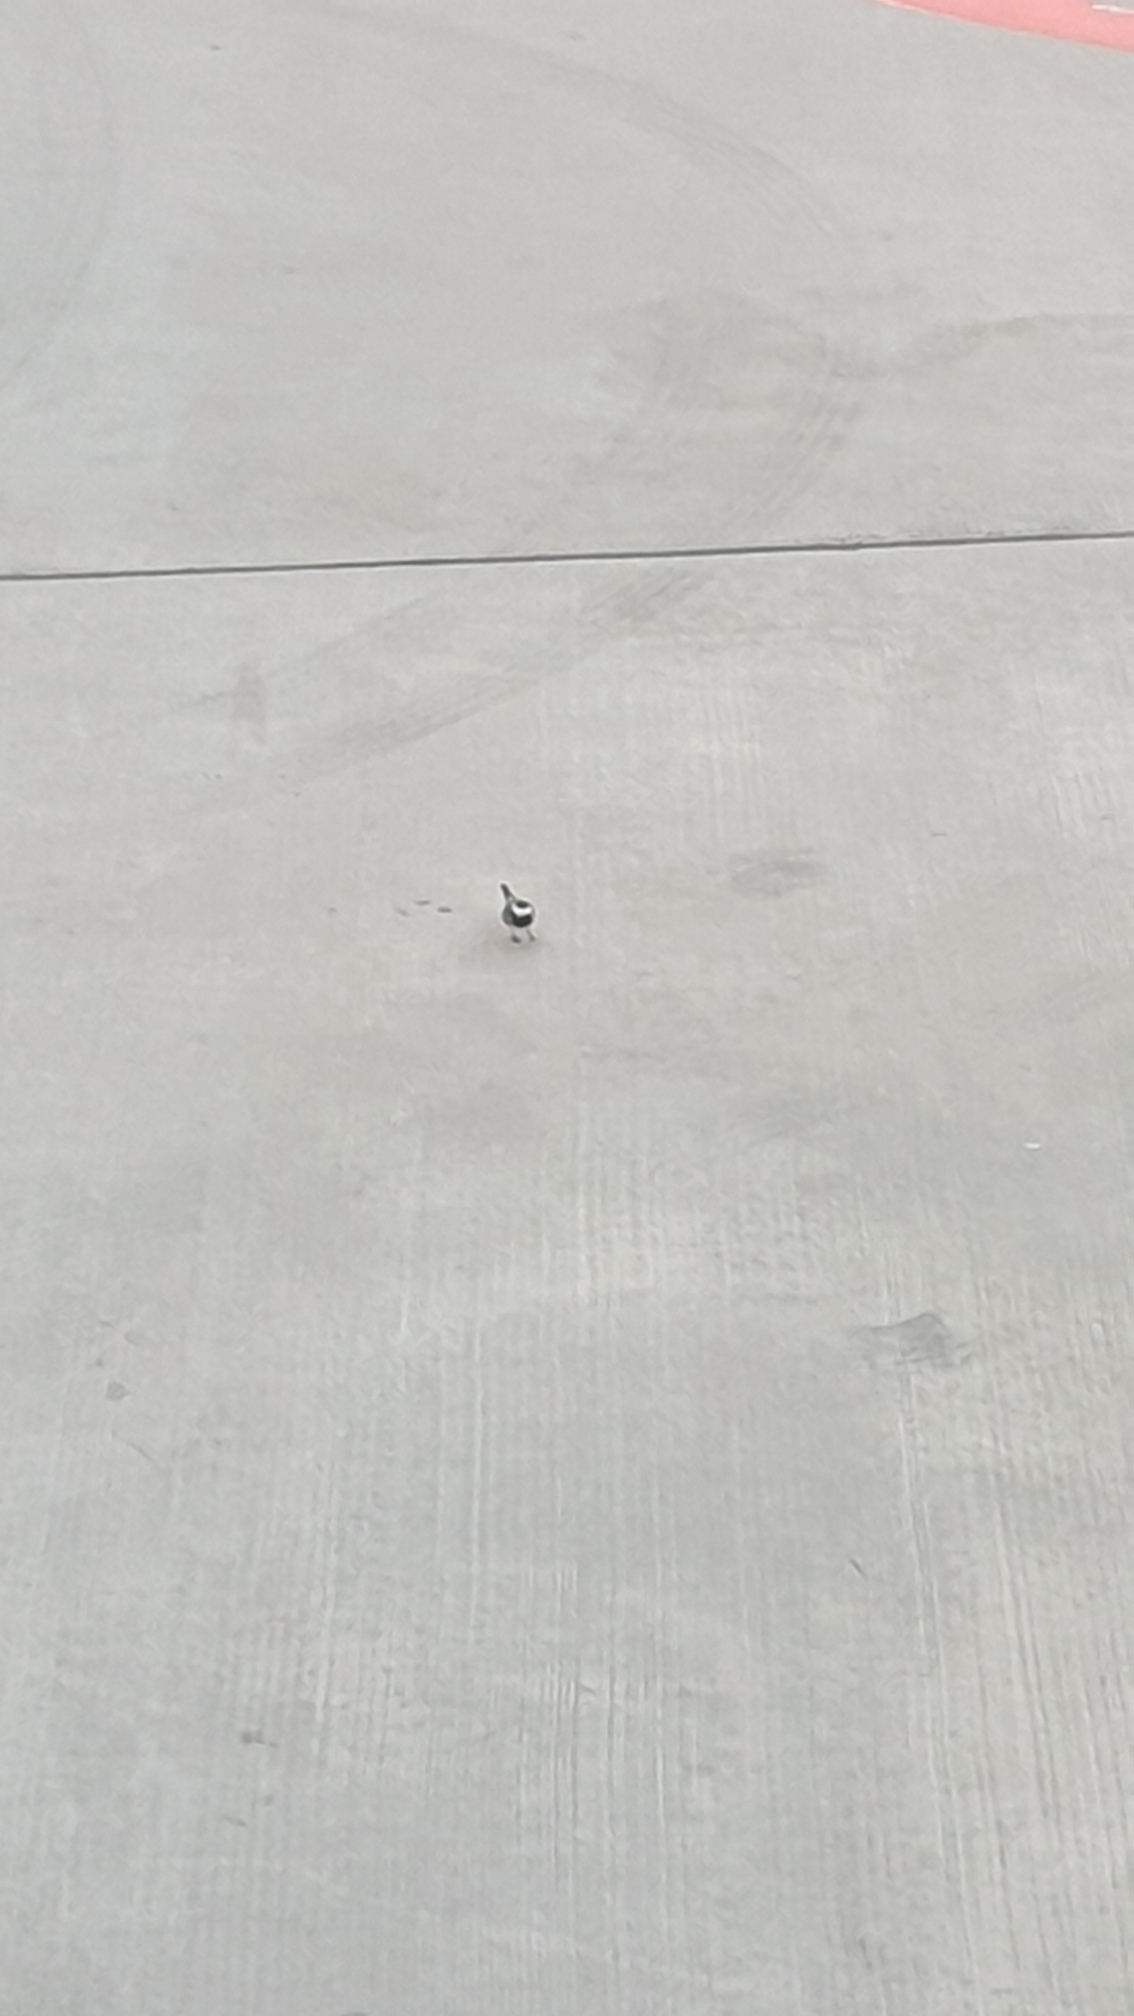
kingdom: Animalia
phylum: Chordata
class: Aves
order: Passeriformes
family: Motacillidae
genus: Motacilla
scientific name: Motacilla alba
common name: Hvid vipstjert
